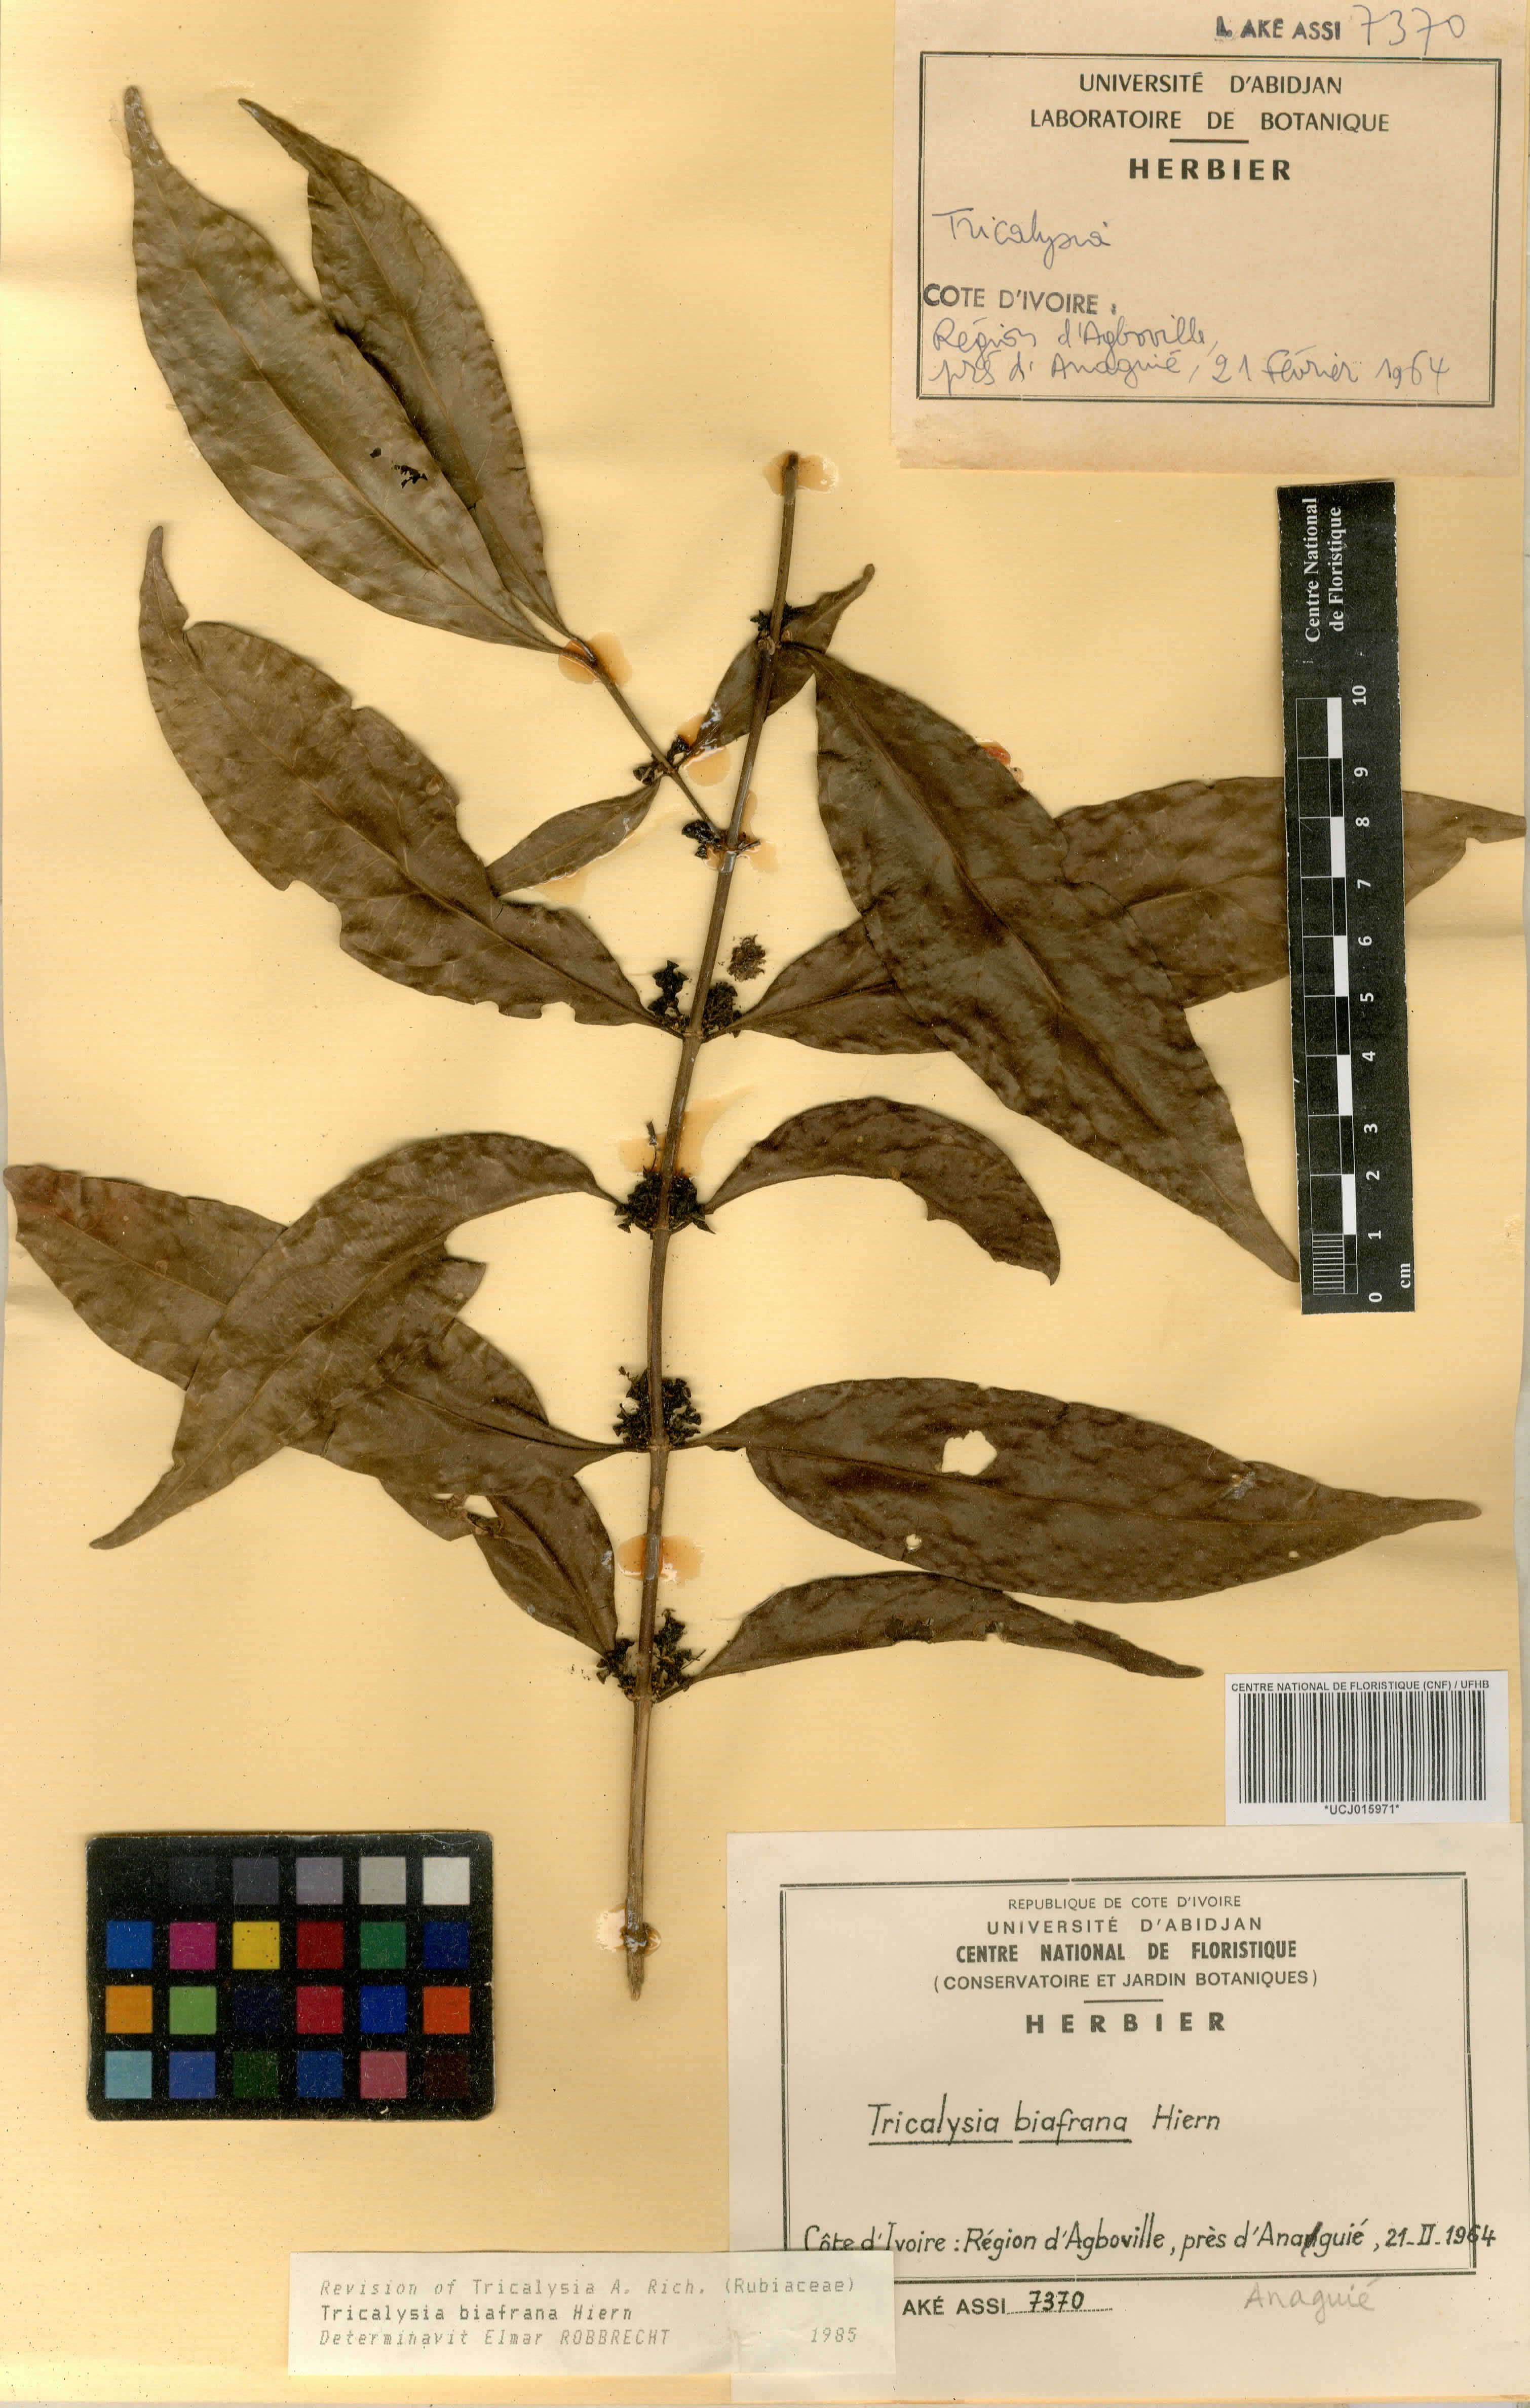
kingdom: Plantae
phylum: Tracheophyta
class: Magnoliopsida
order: Gentianales
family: Rubiaceae
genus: Tricalysia
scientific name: Tricalysia biafrana
